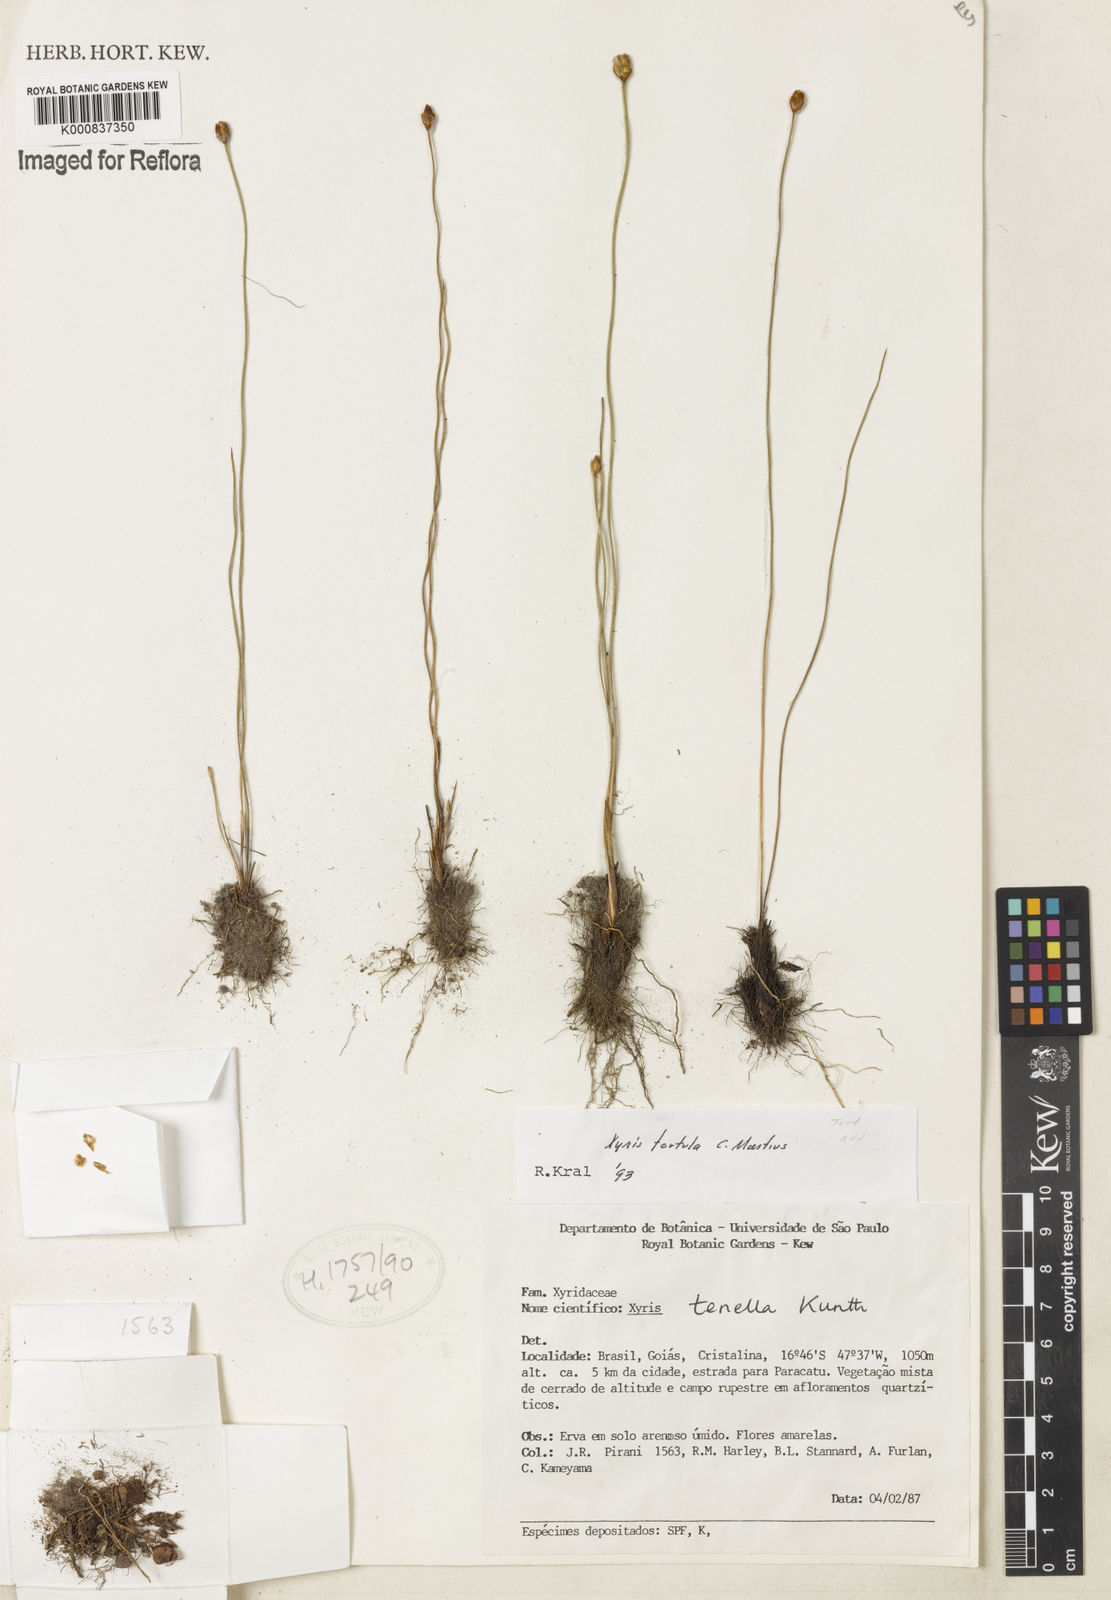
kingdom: Plantae
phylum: Tracheophyta
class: Liliopsida
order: Poales
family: Xyridaceae
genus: Xyris
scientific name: Xyris tenella
